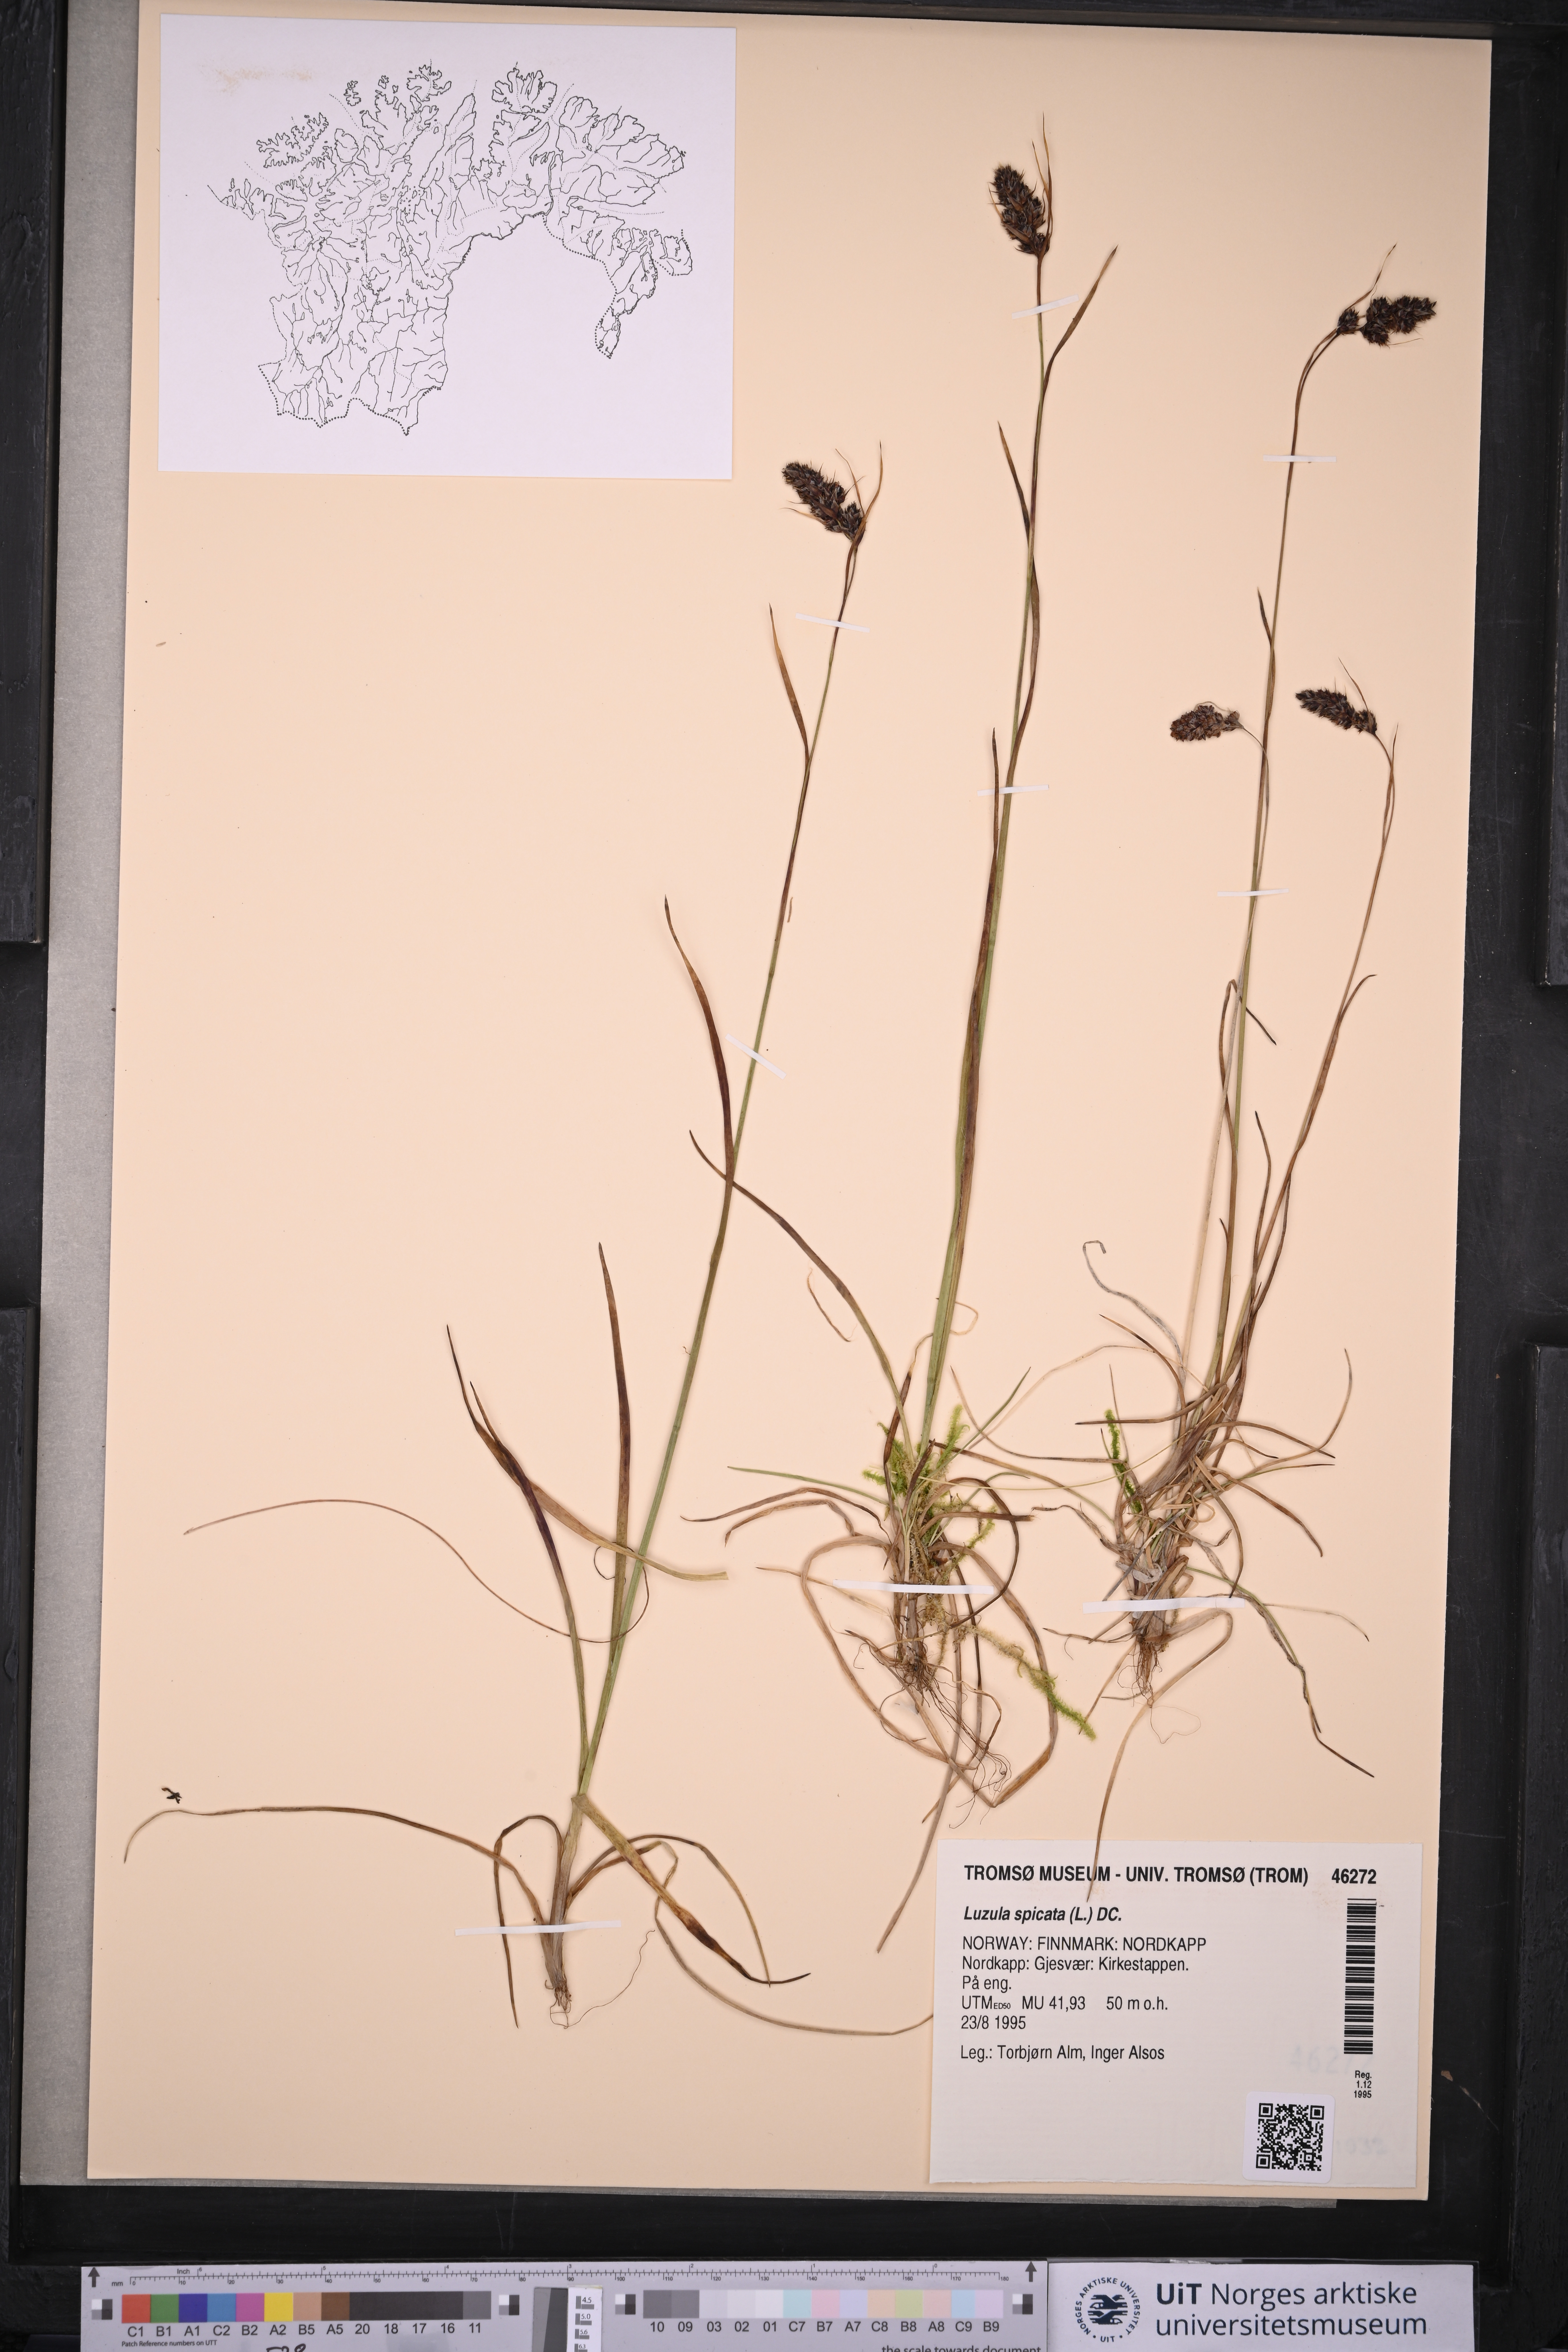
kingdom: Plantae
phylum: Tracheophyta
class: Liliopsida
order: Poales
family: Juncaceae
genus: Luzula
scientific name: Luzula spicata
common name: Spiked wood-rush
